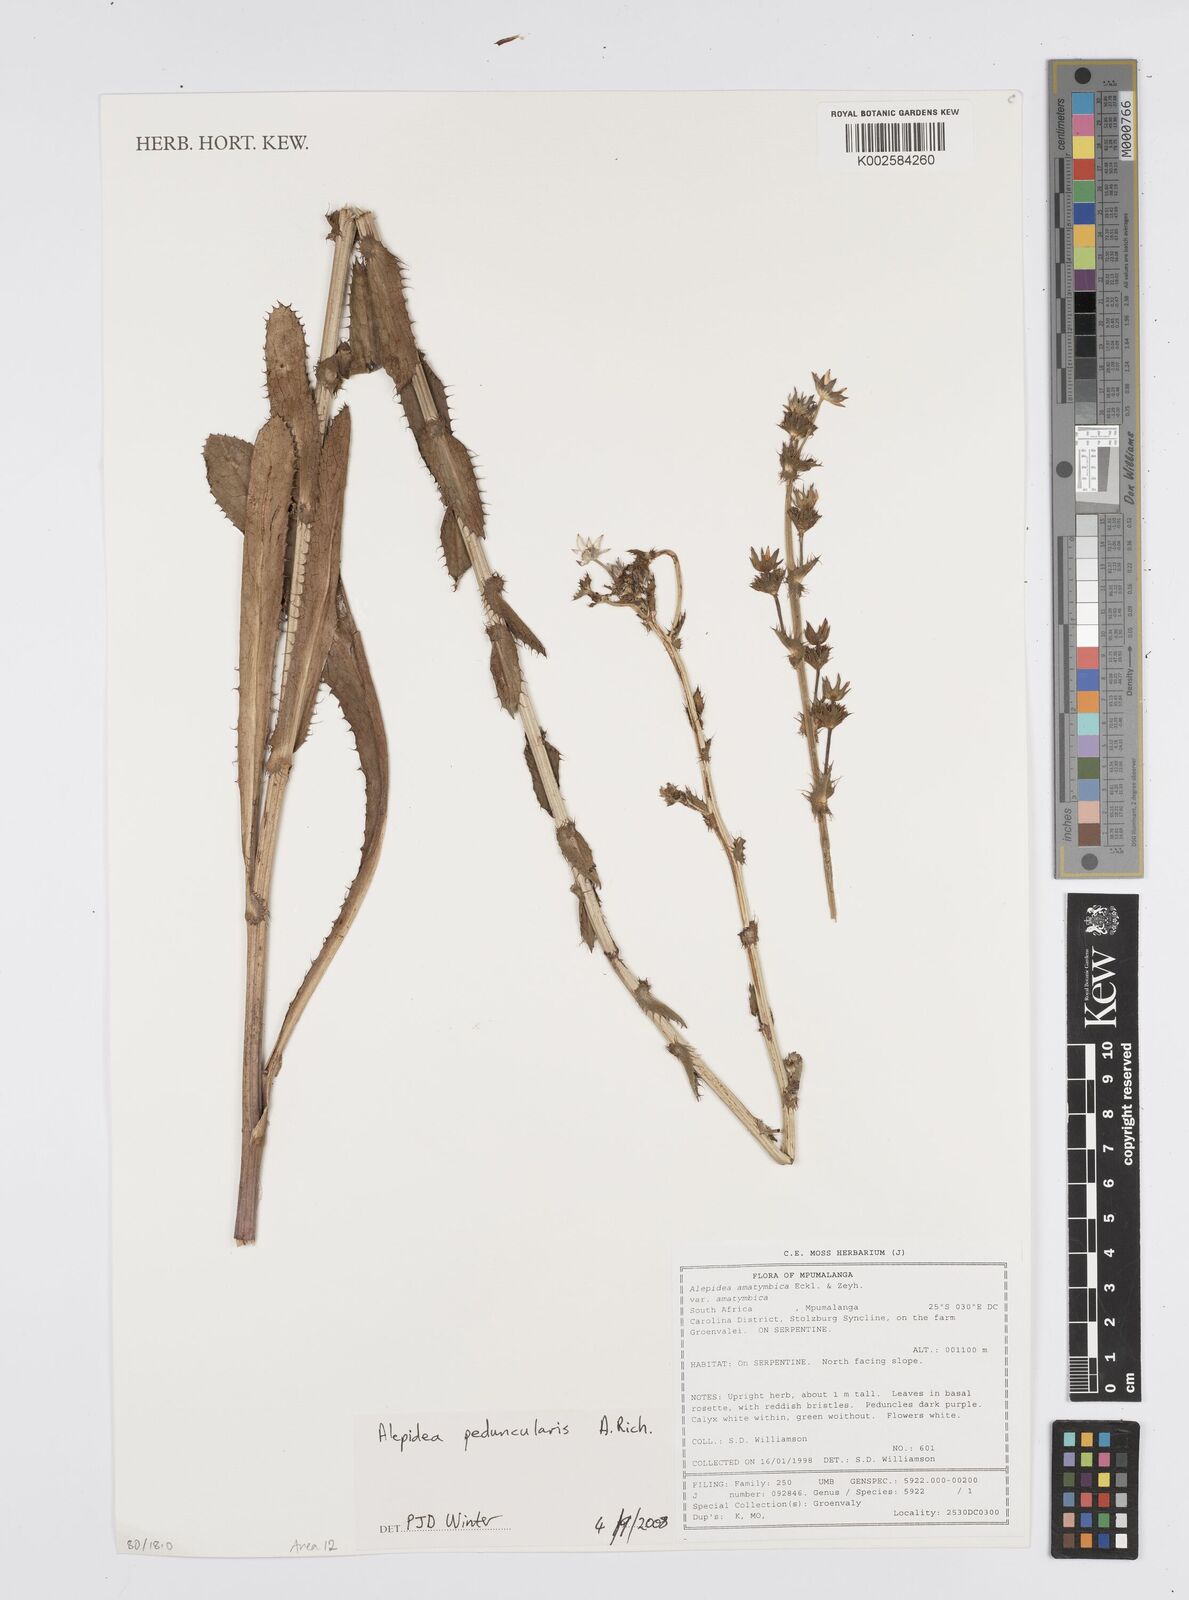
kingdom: Plantae
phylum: Tracheophyta
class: Magnoliopsida
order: Apiales
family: Apiaceae
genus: Alepidea
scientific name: Alepidea peduncularis
